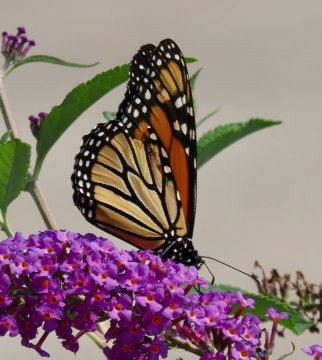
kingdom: Animalia
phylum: Arthropoda
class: Insecta
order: Lepidoptera
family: Nymphalidae
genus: Danaus
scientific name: Danaus plexippus
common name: Monarch
